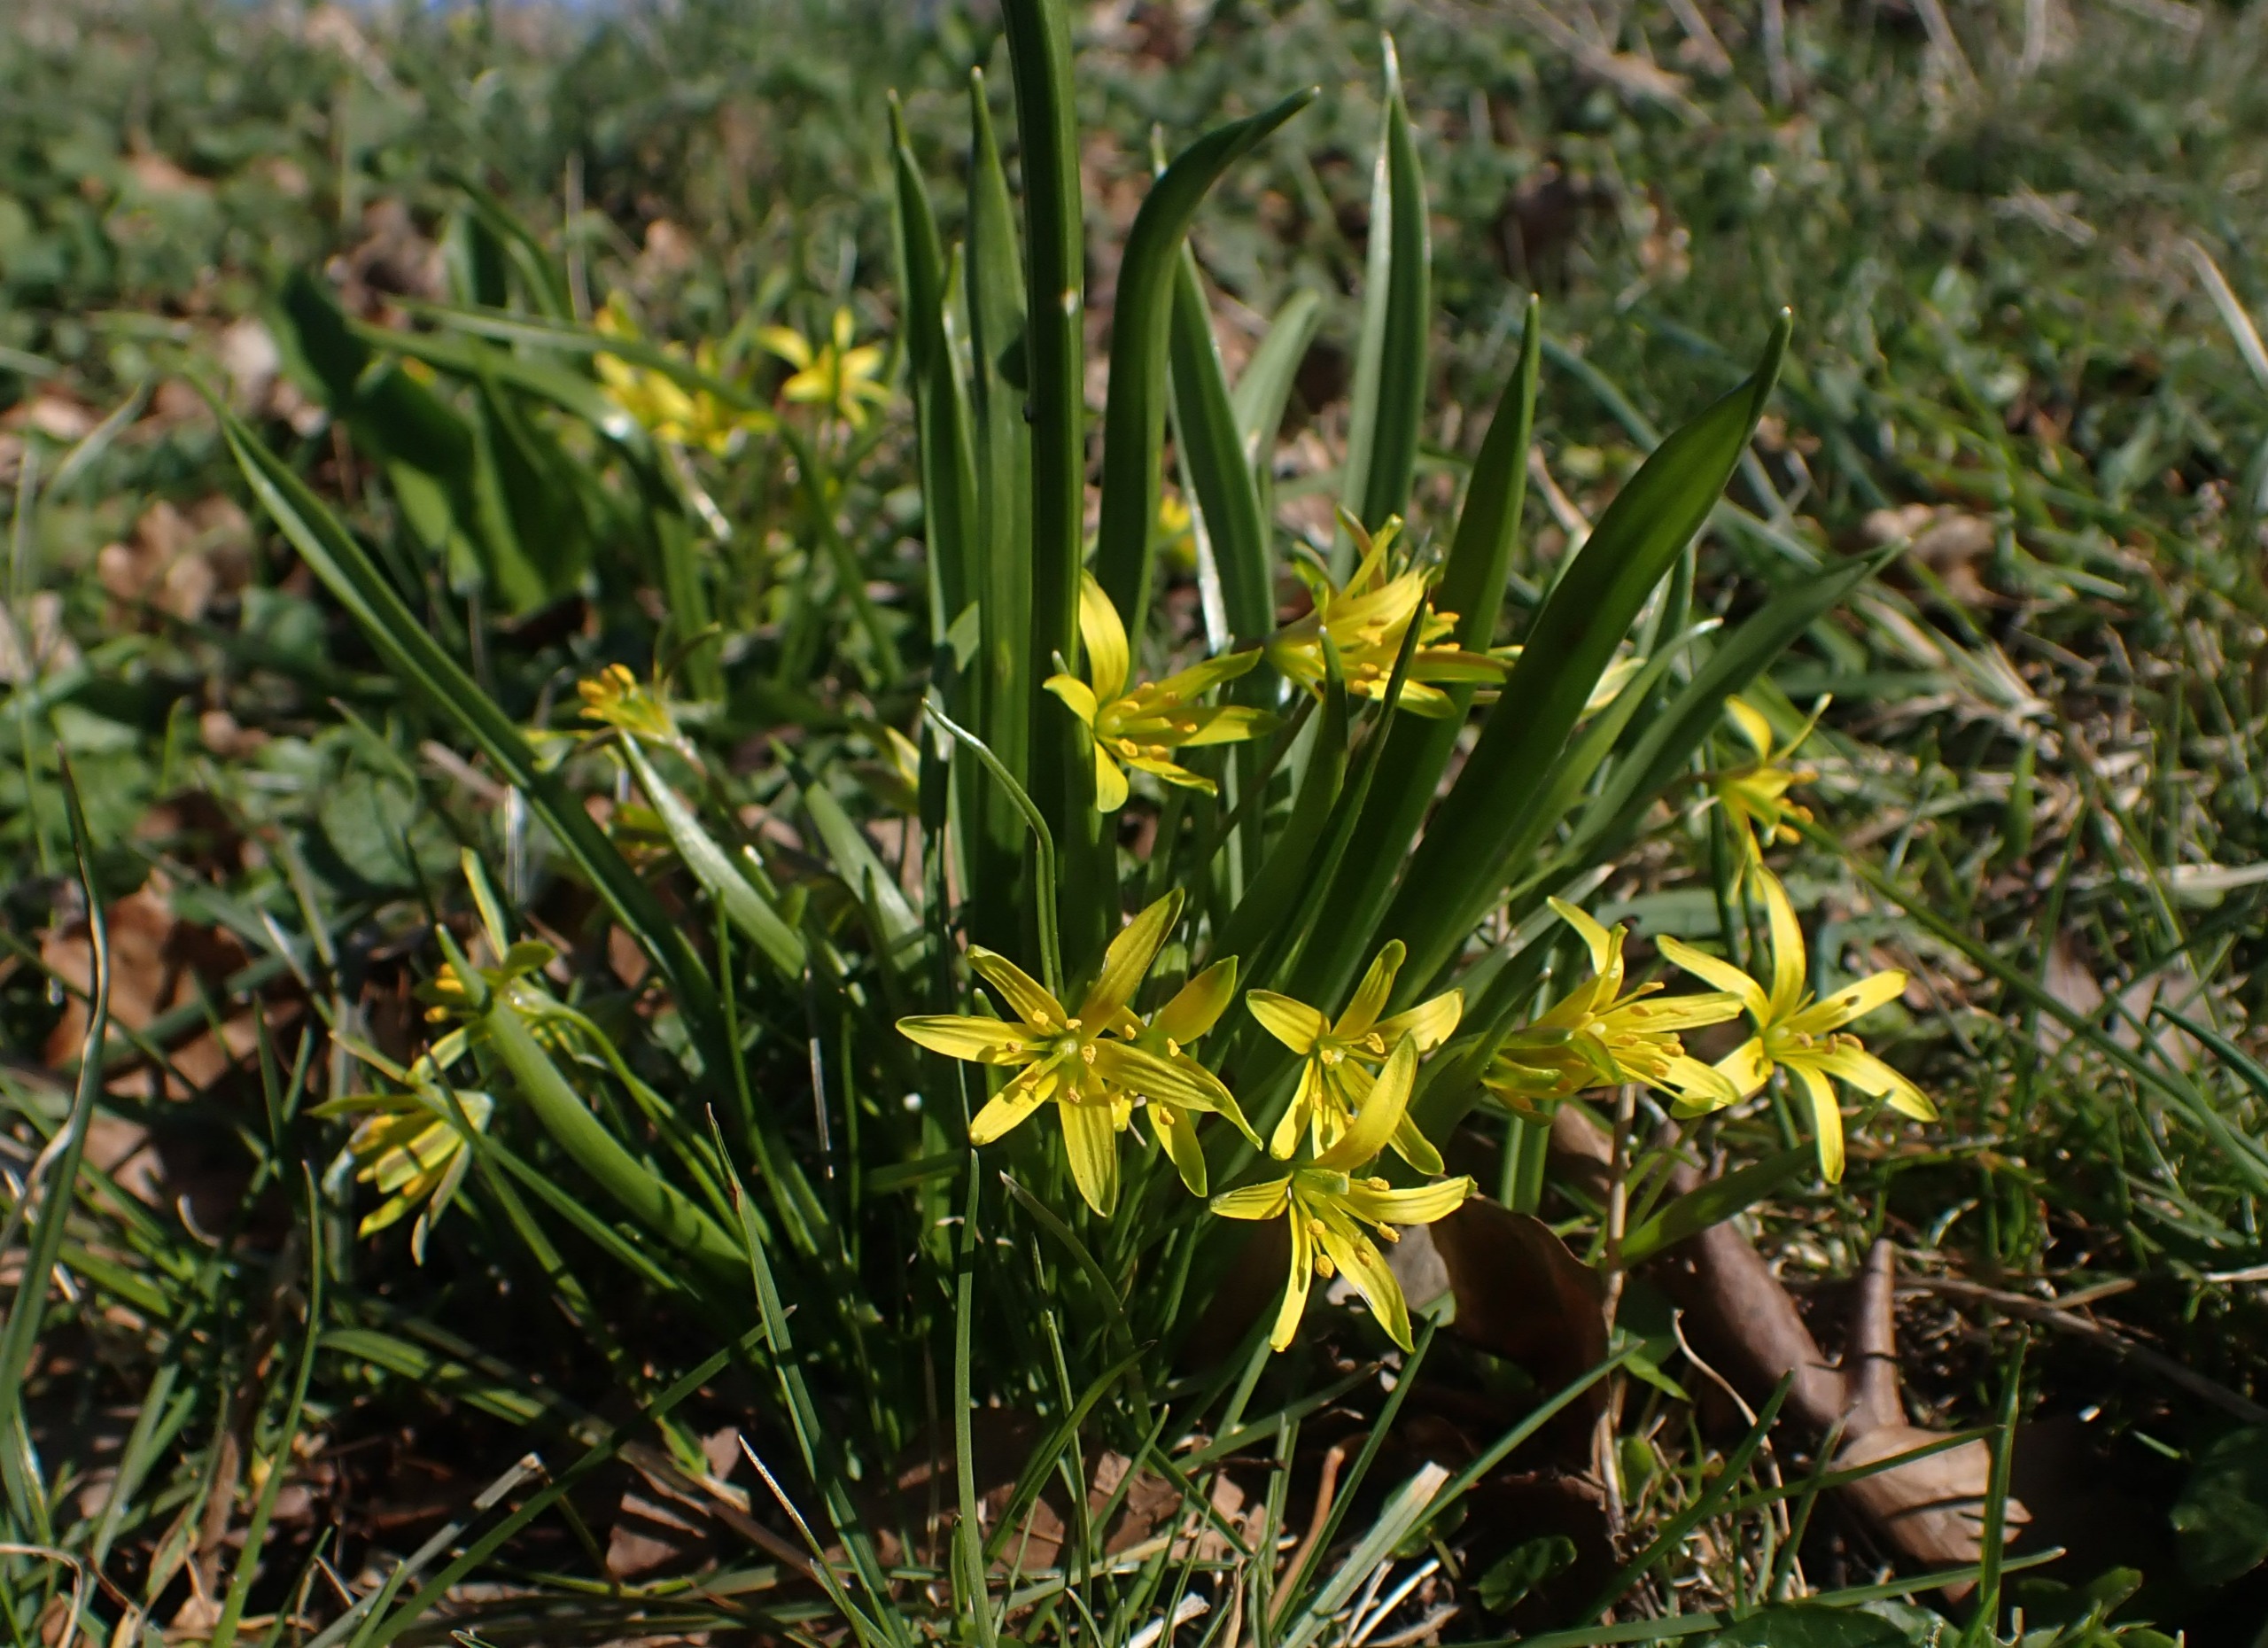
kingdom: Plantae
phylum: Tracheophyta
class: Liliopsida
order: Liliales
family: Liliaceae
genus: Gagea
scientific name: Gagea lutea
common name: Almindelig guldstjerne
